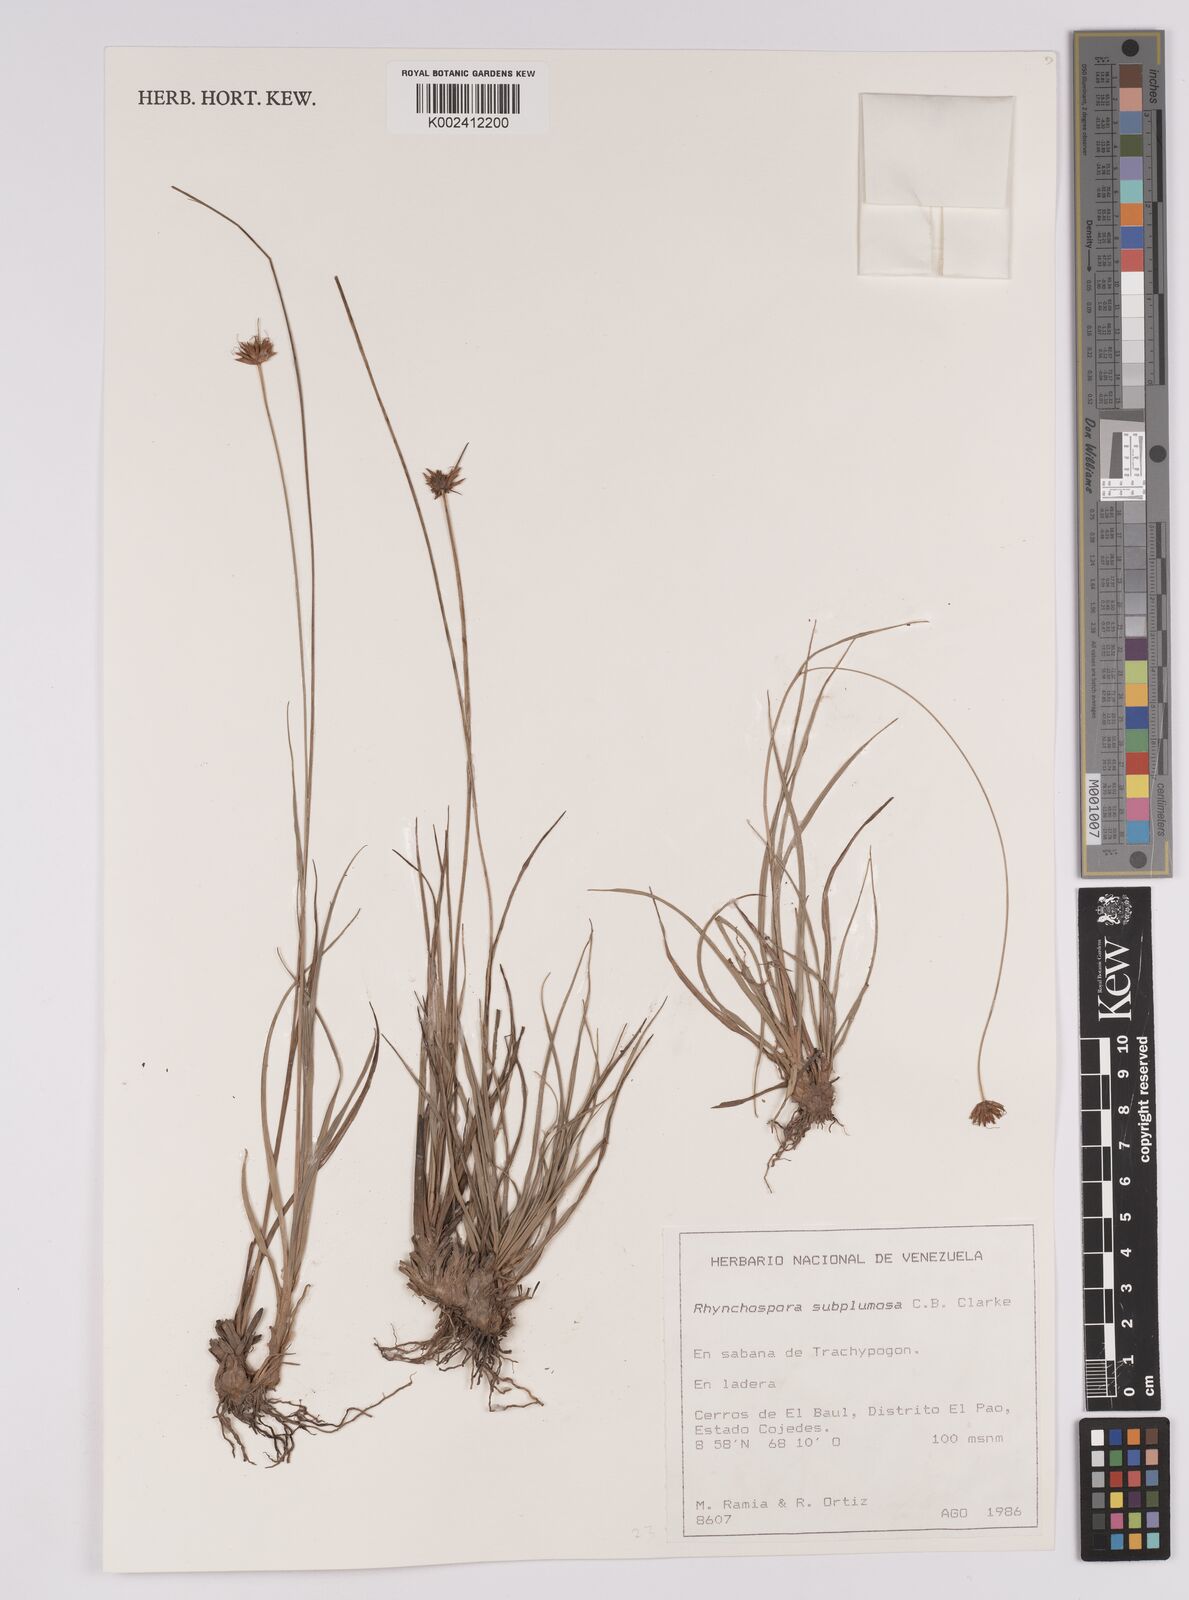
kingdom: Plantae
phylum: Tracheophyta
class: Liliopsida
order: Poales
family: Cyperaceae
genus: Rhynchospora
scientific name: Rhynchospora subplumosa
